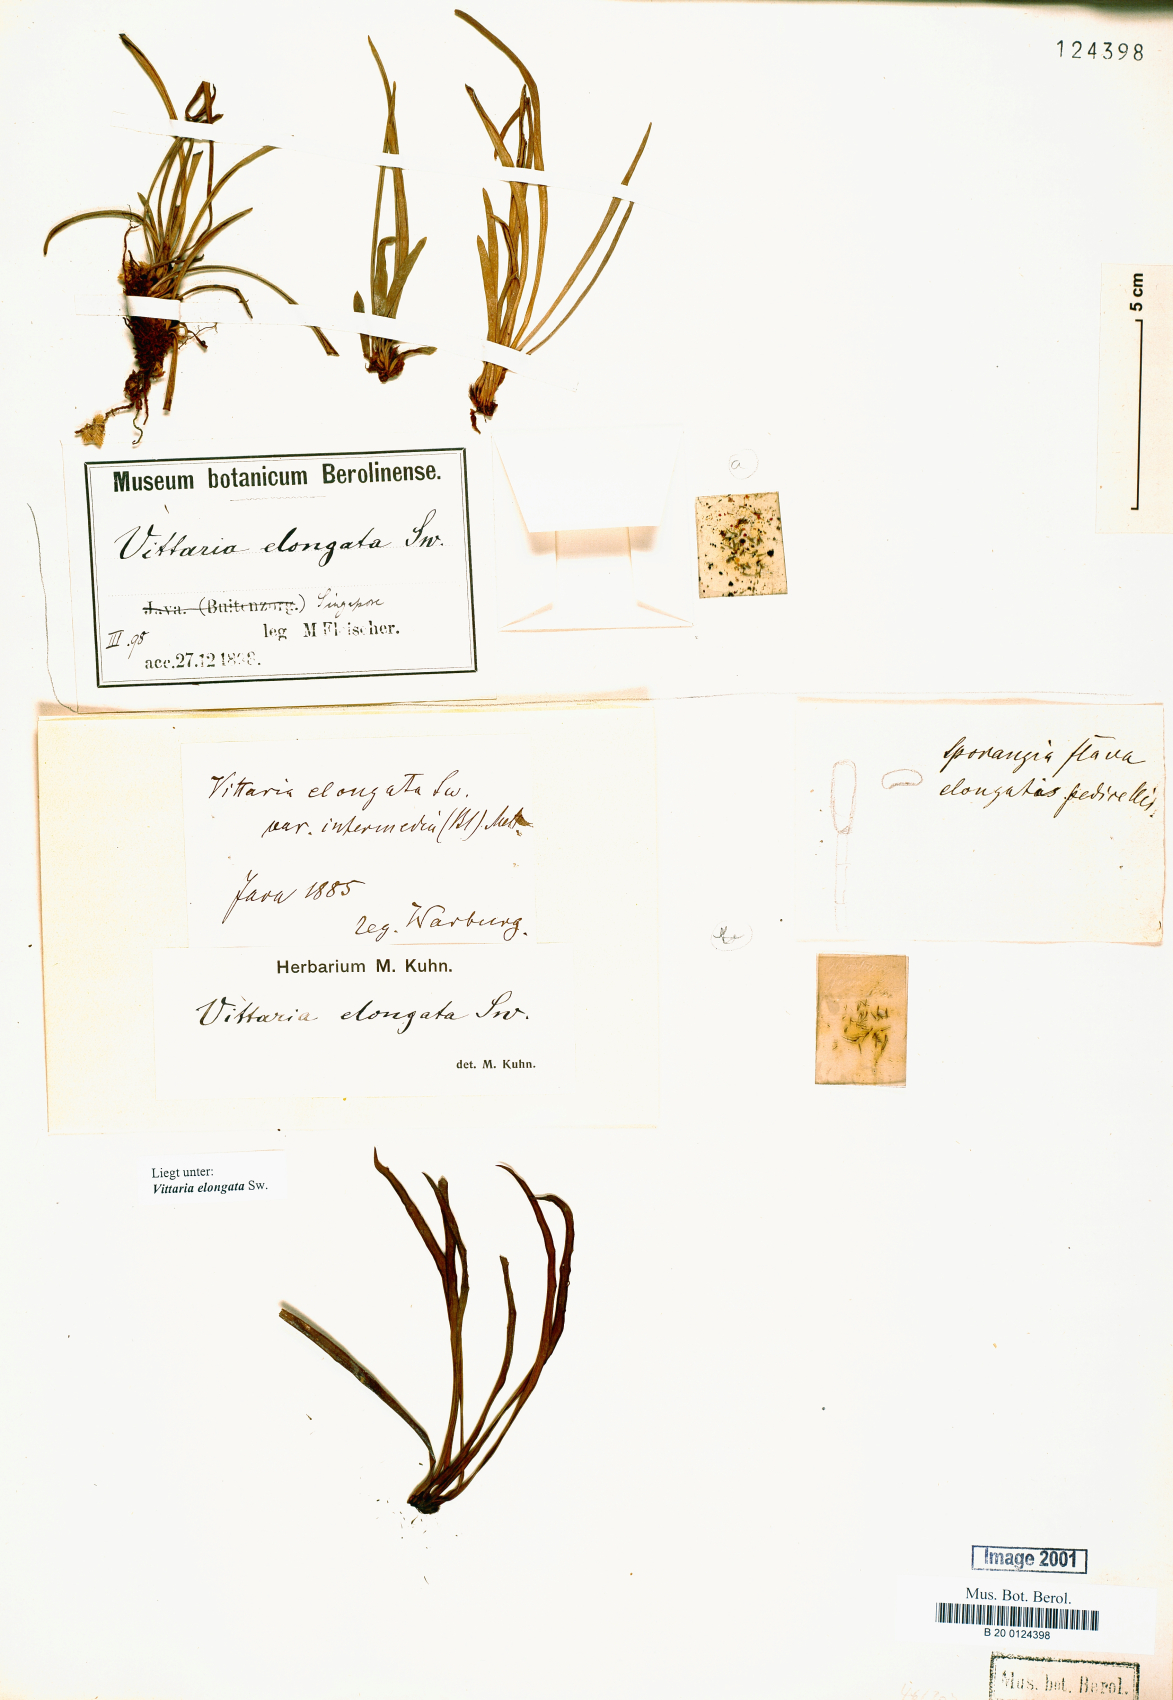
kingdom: Plantae
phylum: Tracheophyta
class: Polypodiopsida
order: Polypodiales
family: Pteridaceae
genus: Haplopteris
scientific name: Haplopteris elongata
